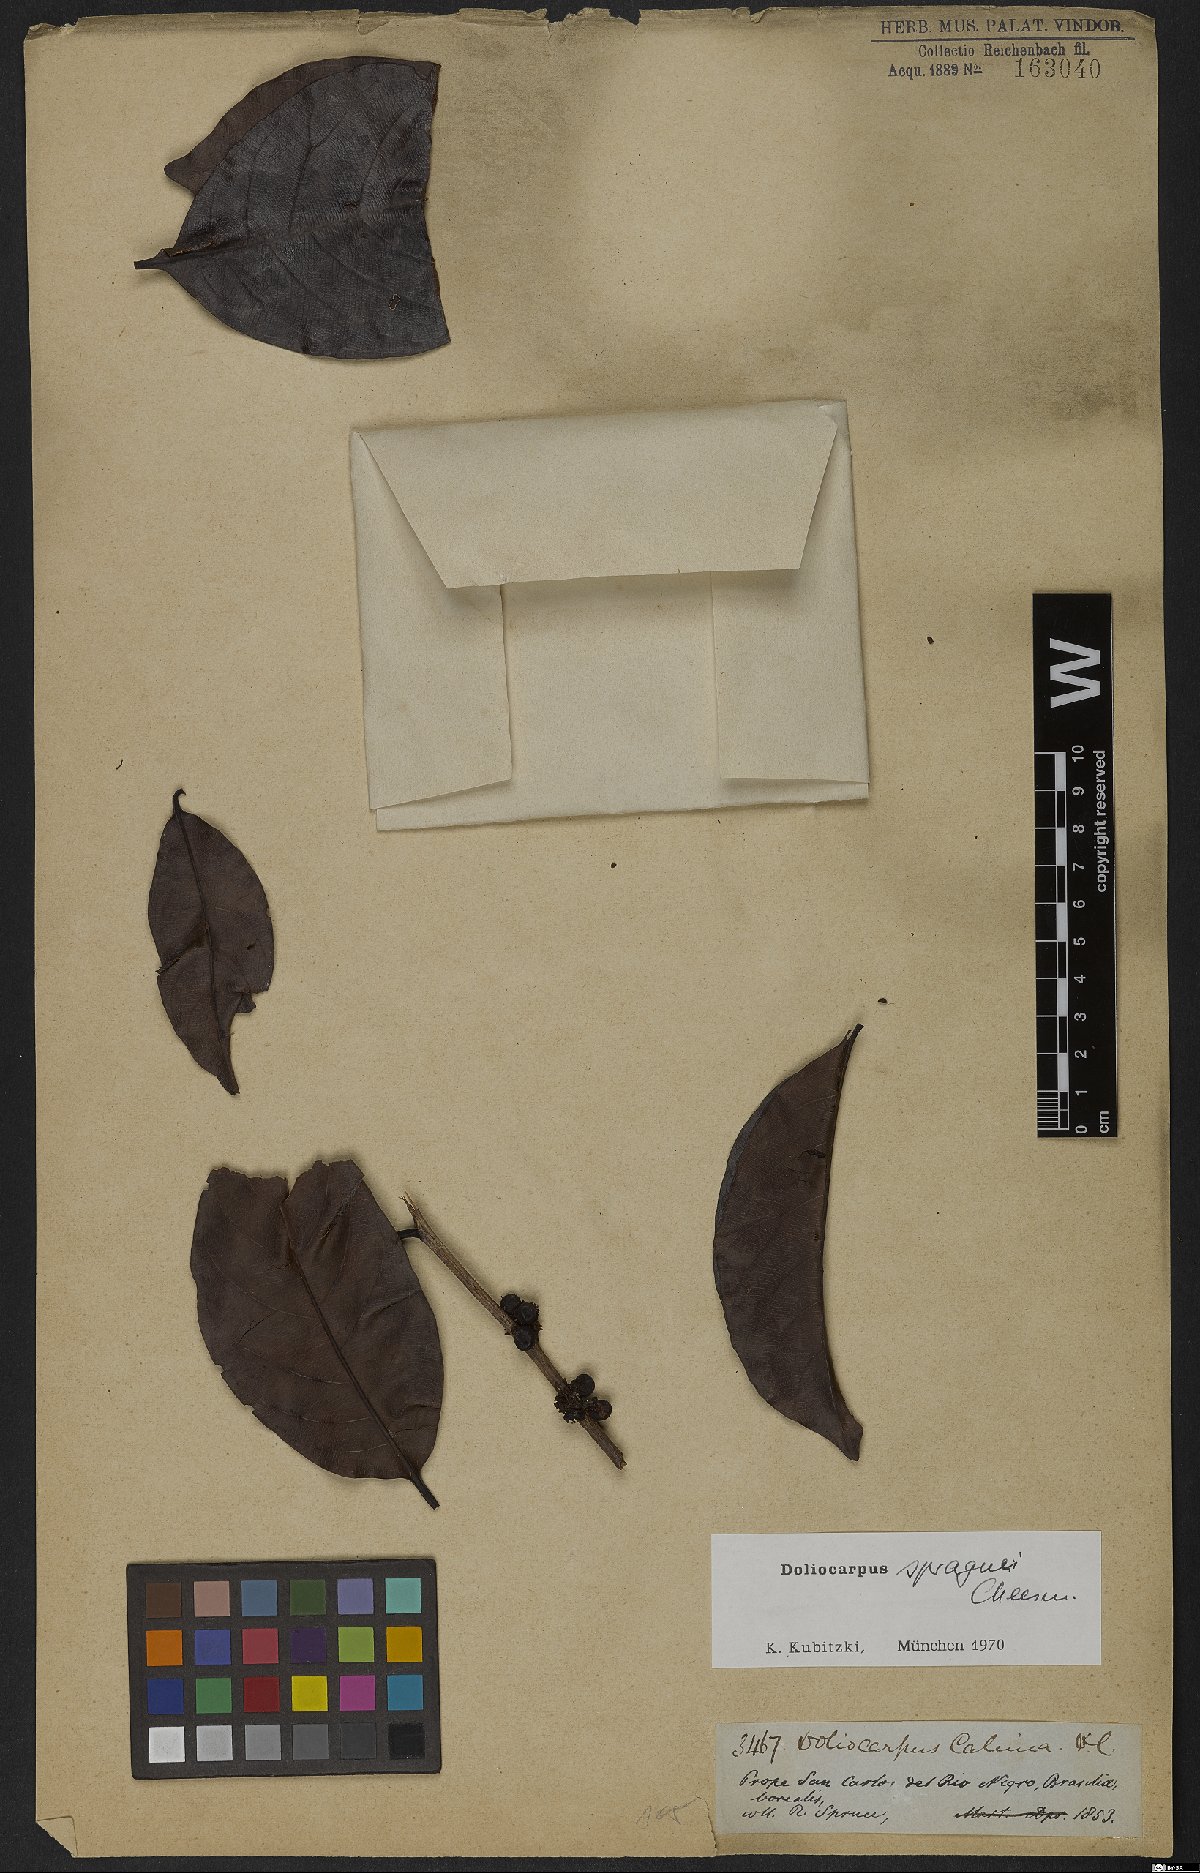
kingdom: Plantae
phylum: Tracheophyta
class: Magnoliopsida
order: Dilleniales
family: Dilleniaceae
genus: Doliocarpus
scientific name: Doliocarpus spraguei
